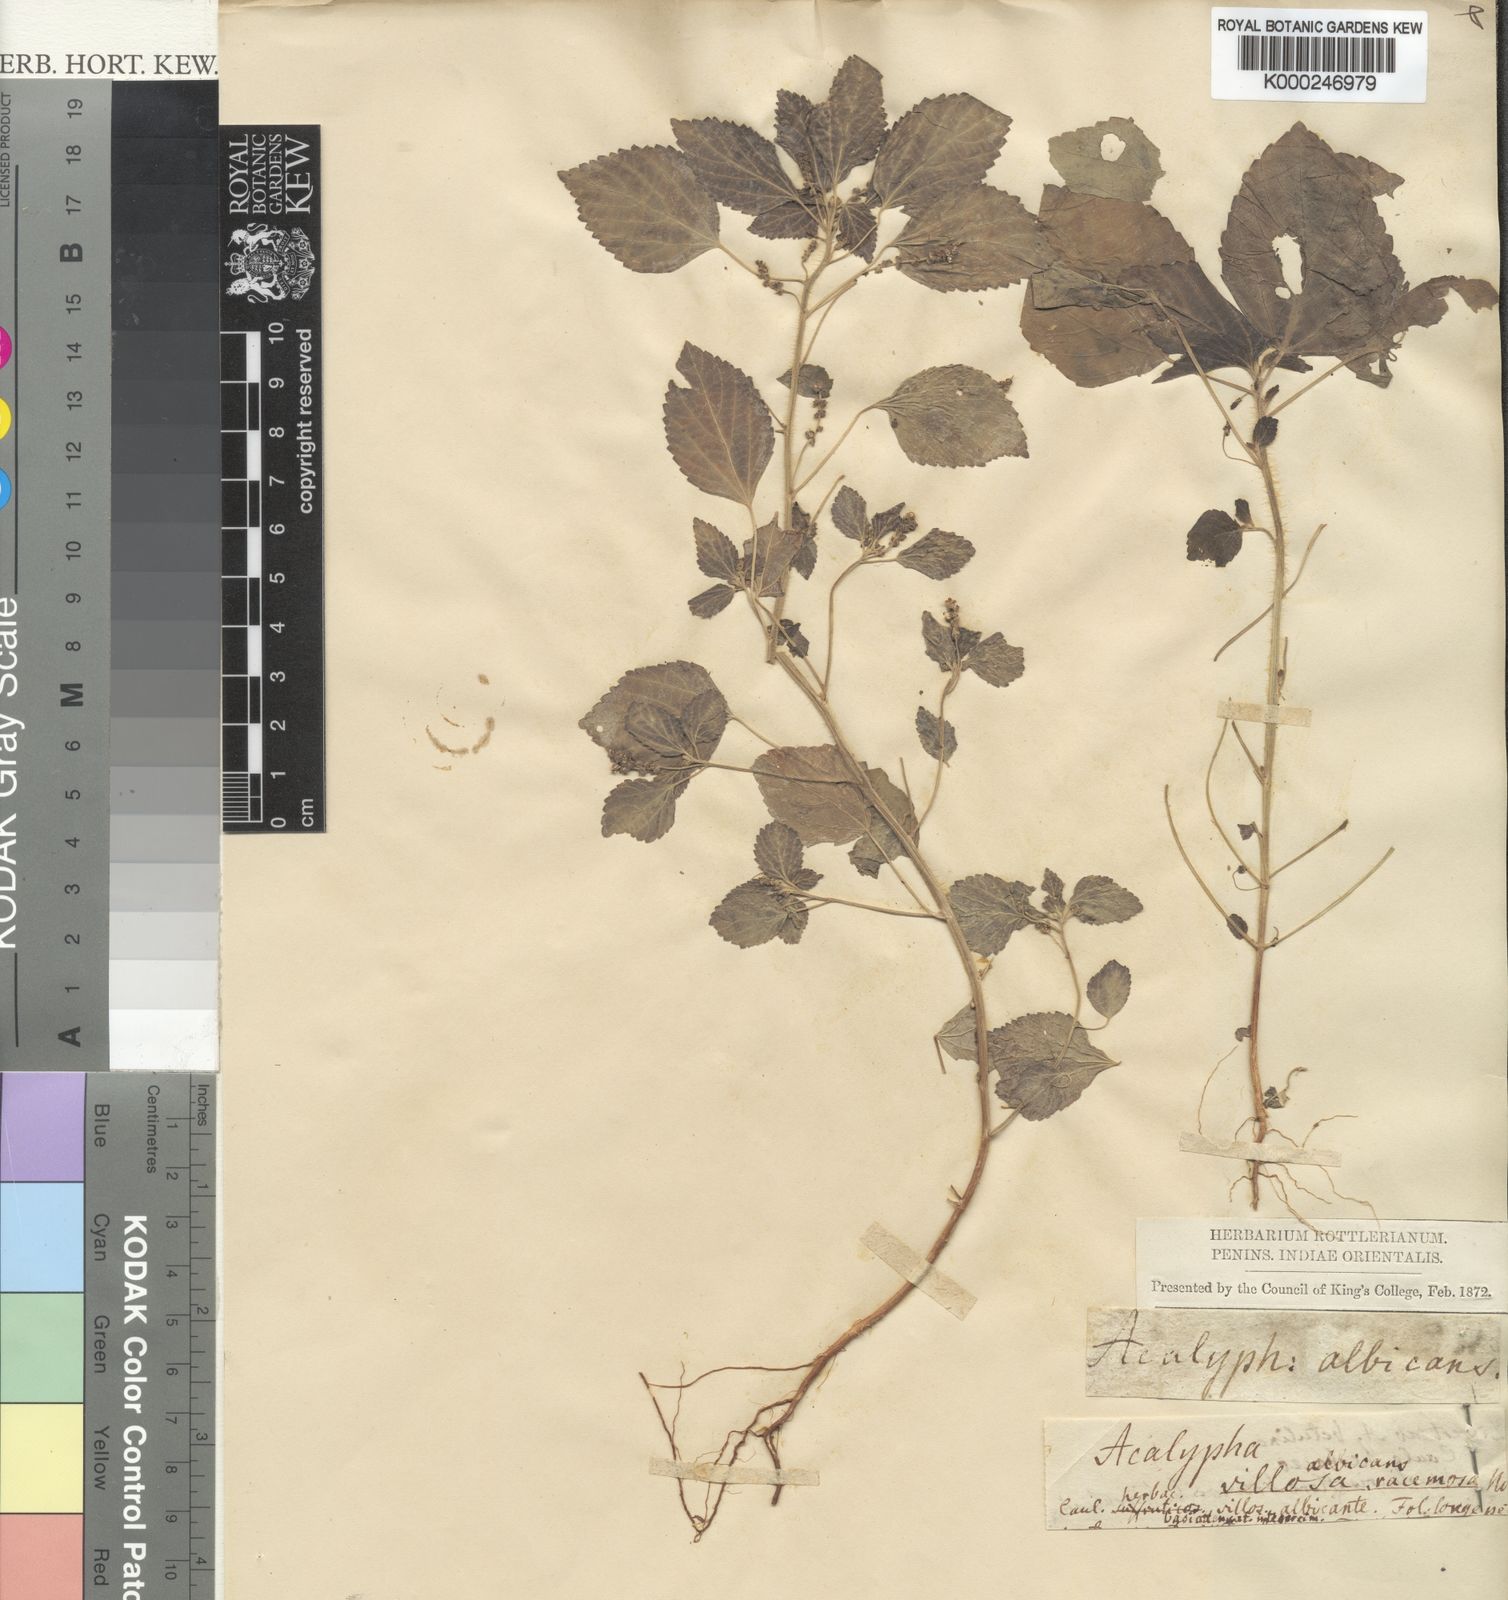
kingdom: Plantae
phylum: Tracheophyta
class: Magnoliopsida
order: Malpighiales
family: Euphorbiaceae
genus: Acalypha
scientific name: Acalypha lanceolata
